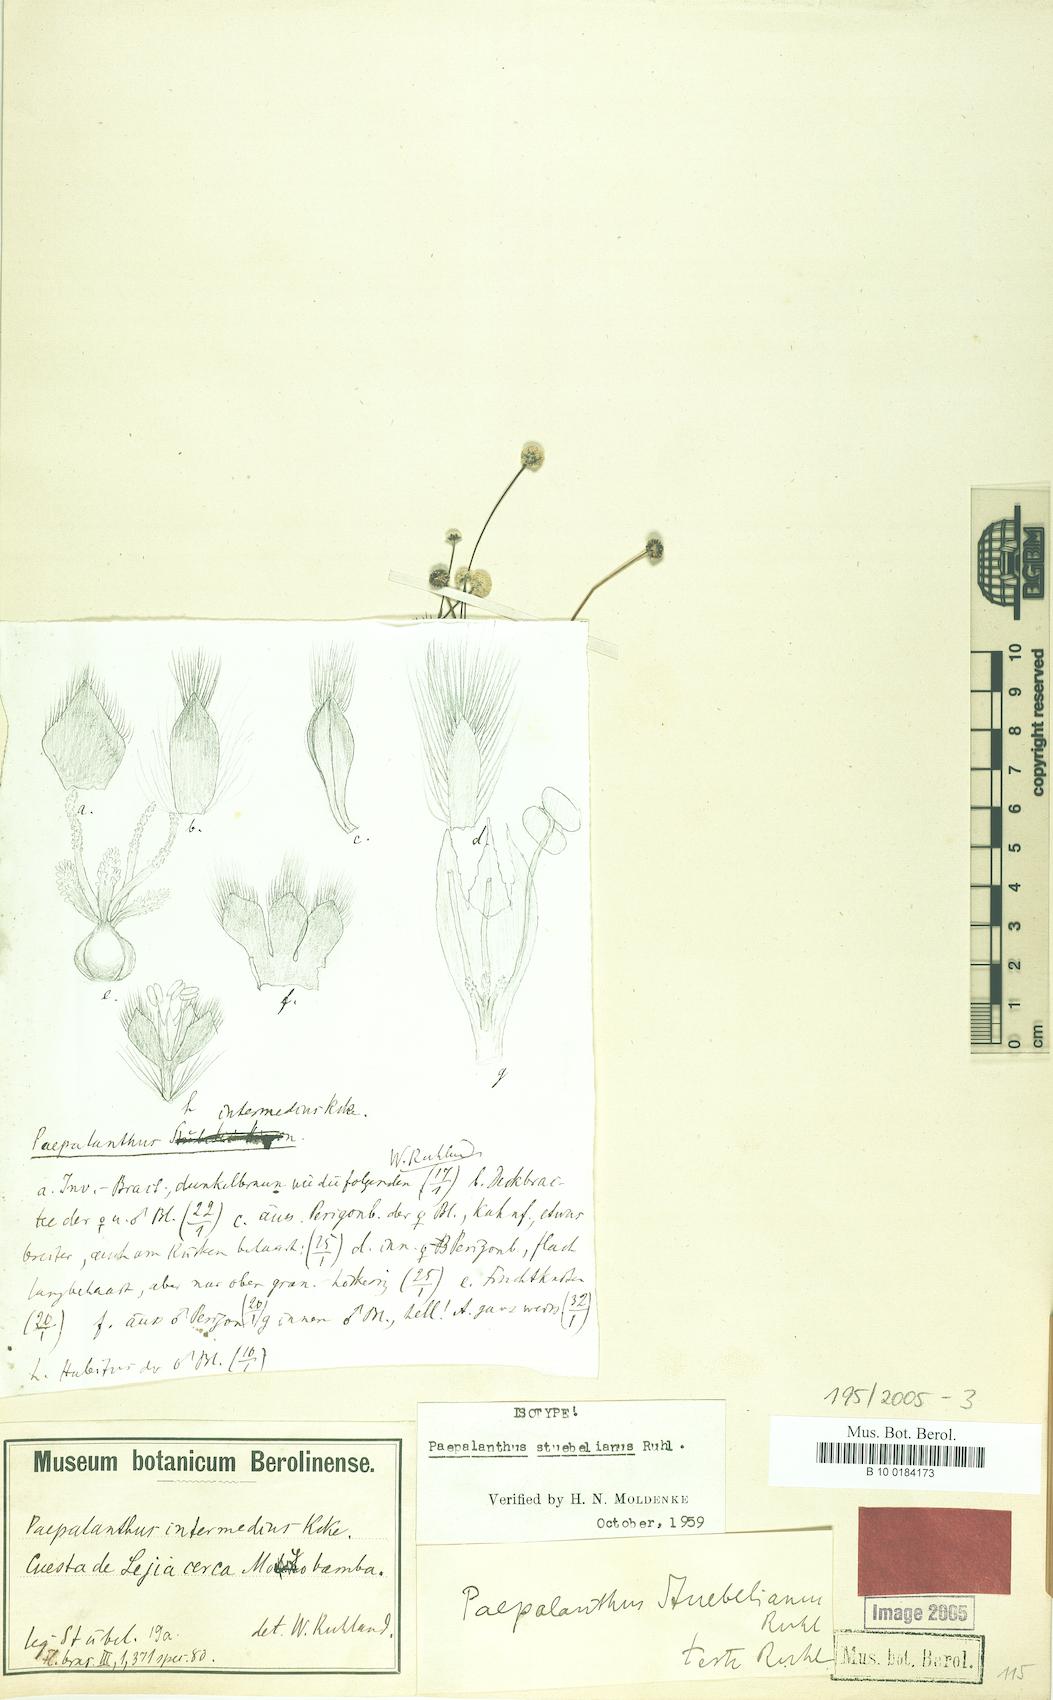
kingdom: Plantae
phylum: Tracheophyta
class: Liliopsida
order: Poales
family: Eriocaulaceae
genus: Paepalanthus
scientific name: Paepalanthus intermedius
